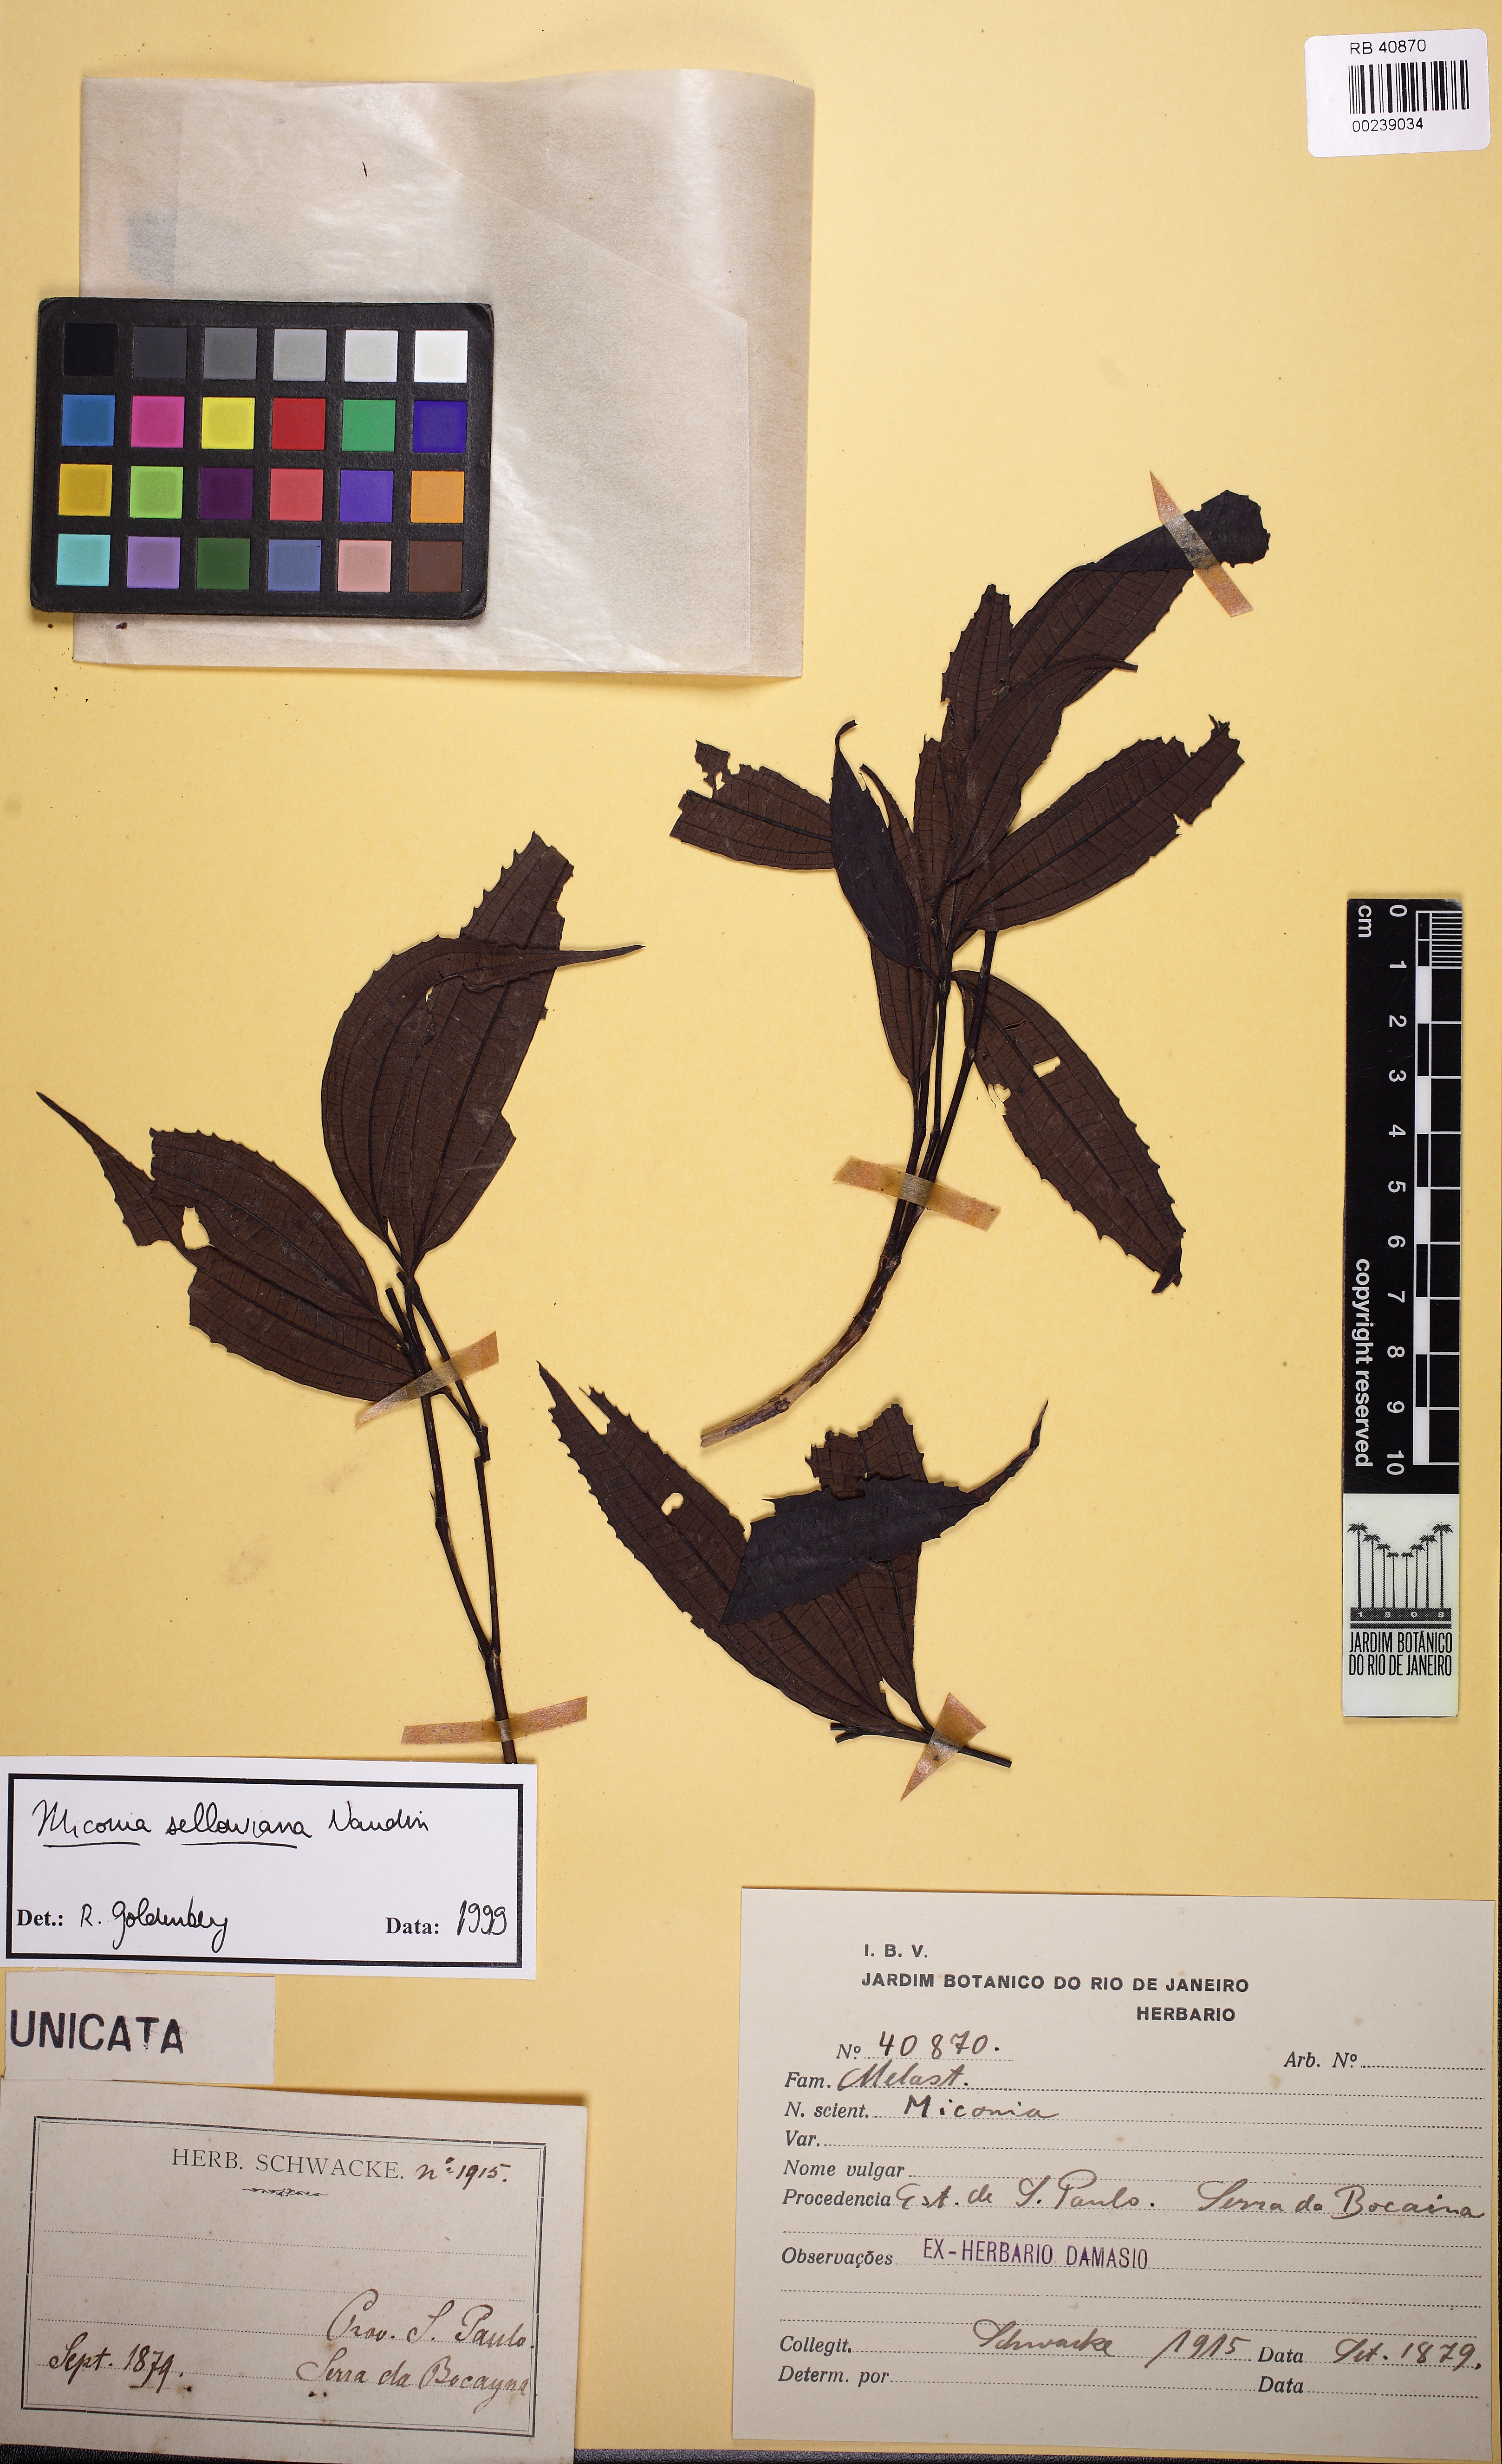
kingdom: Plantae
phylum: Tracheophyta
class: Magnoliopsida
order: Myrtales
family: Melastomataceae
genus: Miconia
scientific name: Miconia sellowiana
